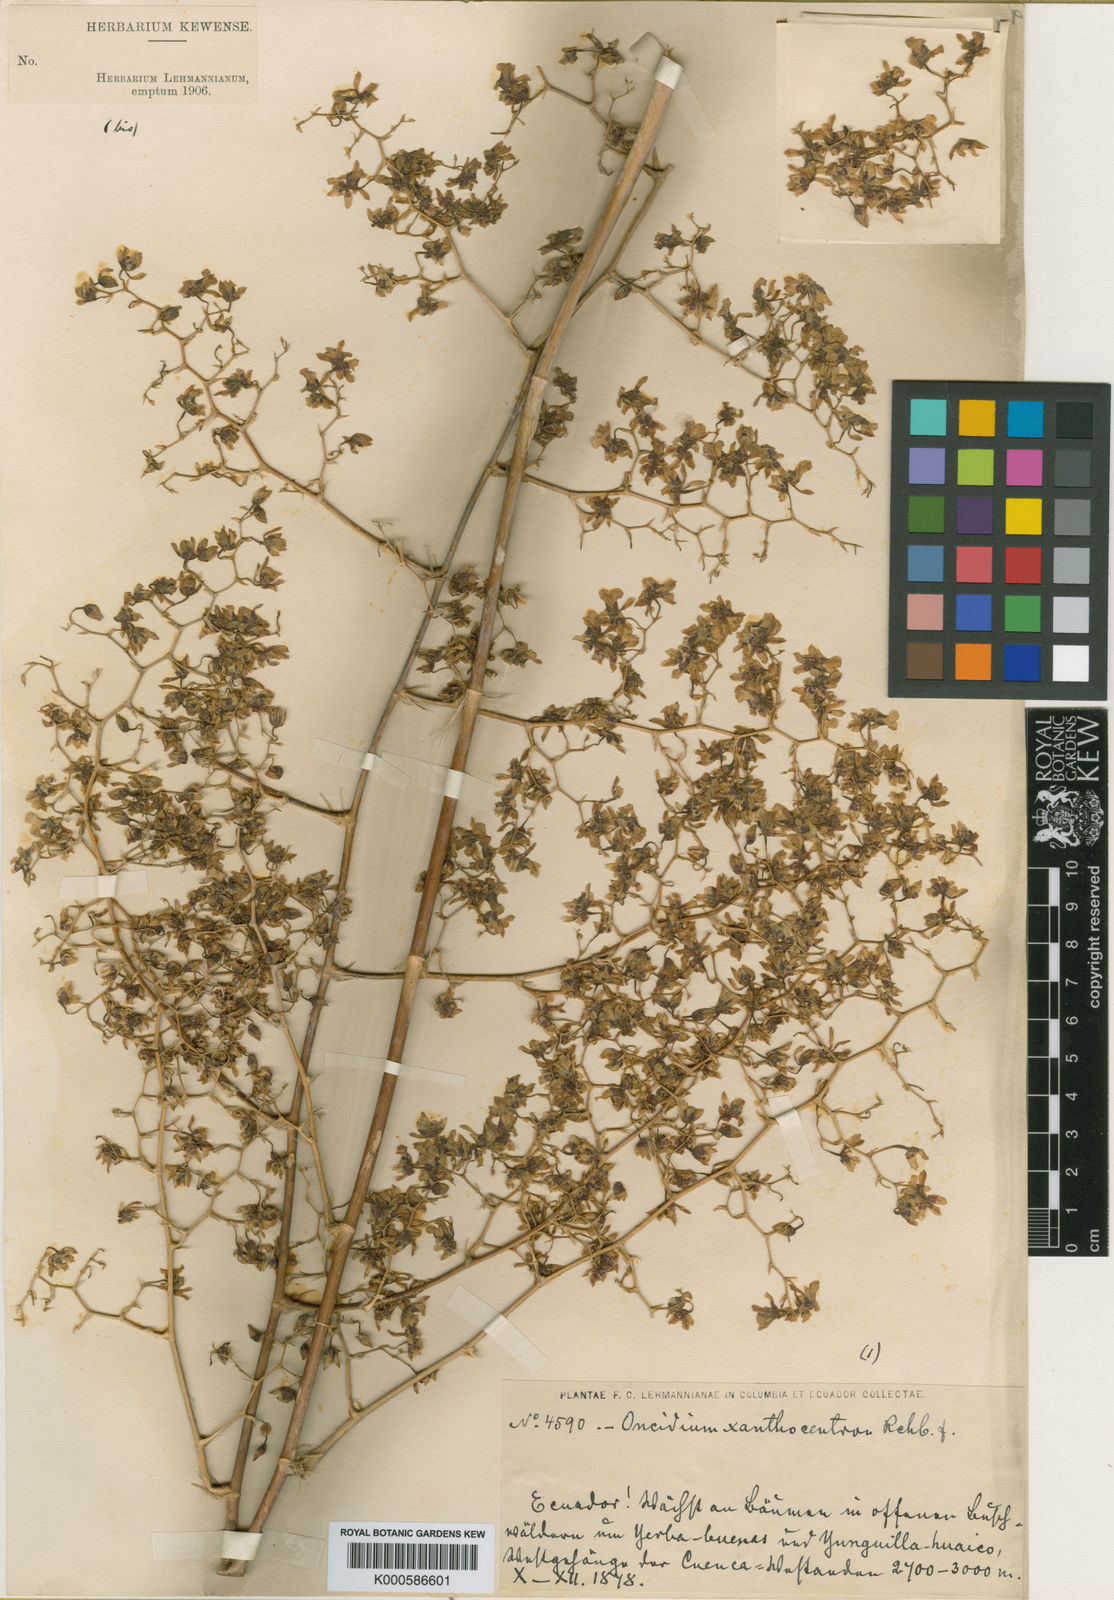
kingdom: Plantae
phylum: Tracheophyta
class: Liliopsida
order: Asparagales
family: Orchidaceae
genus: Oncidium
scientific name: Oncidium lancifolium
